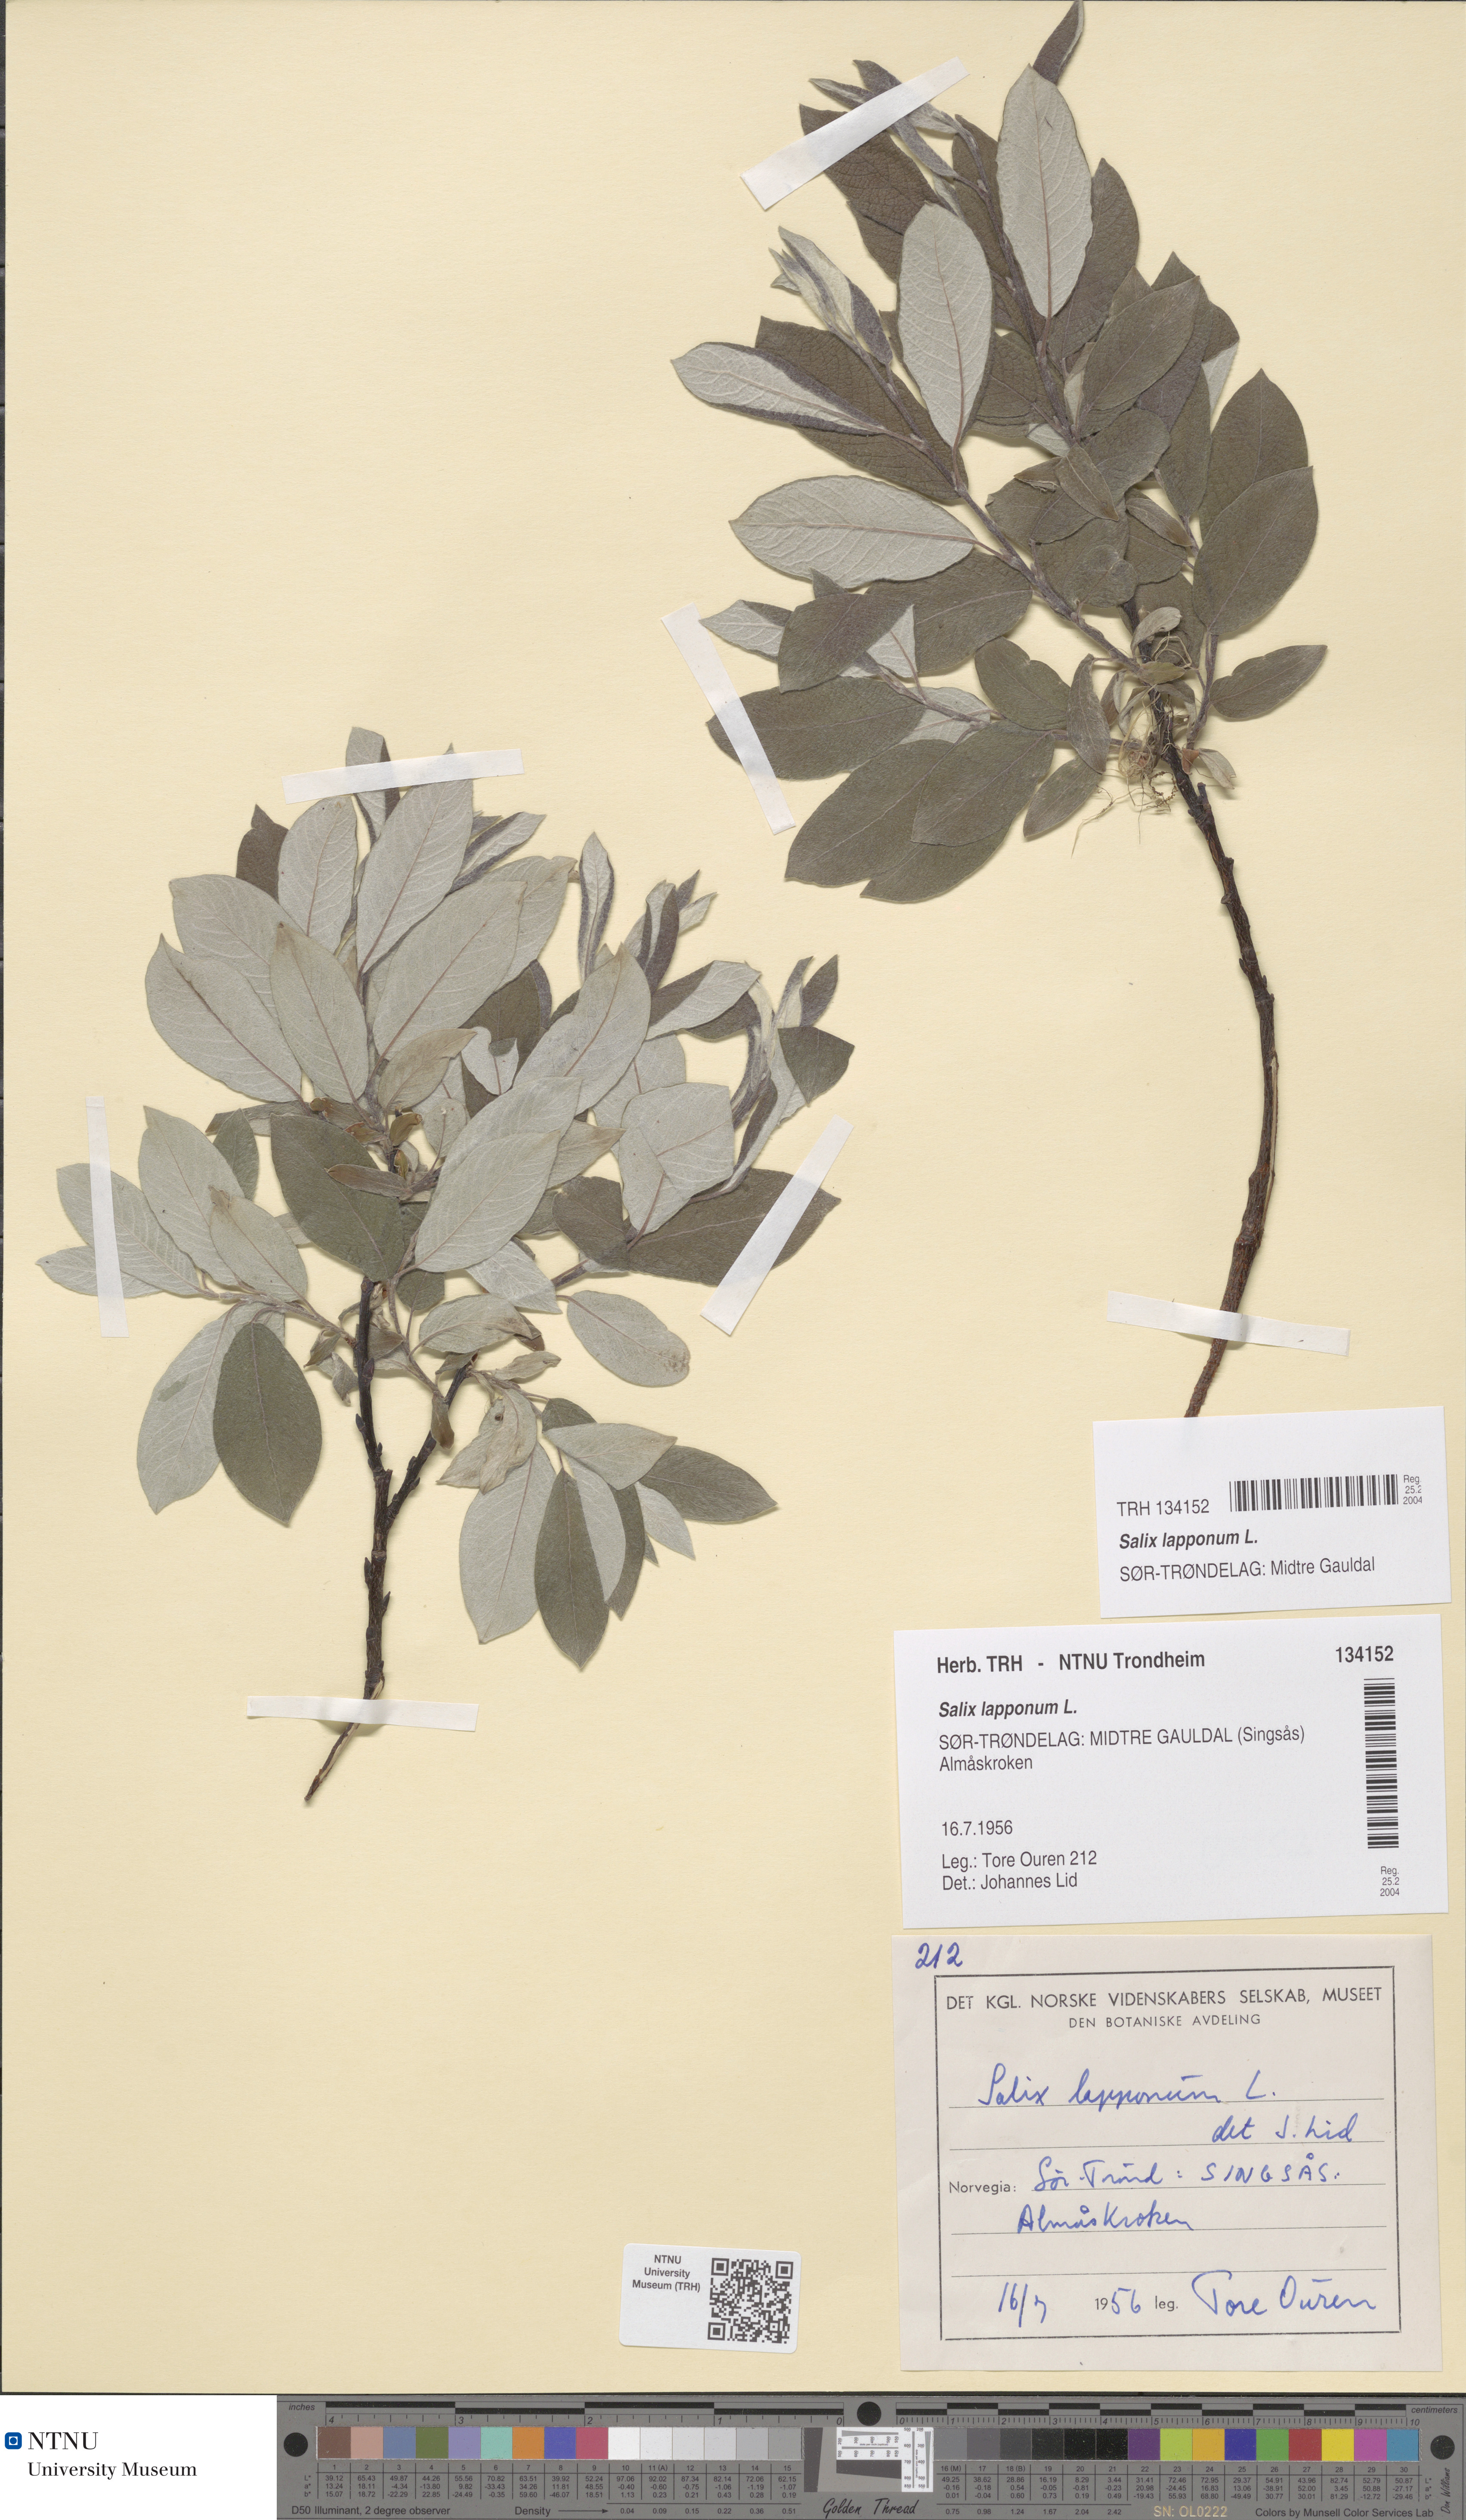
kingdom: Plantae
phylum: Tracheophyta
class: Magnoliopsida
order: Malpighiales
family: Salicaceae
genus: Salix
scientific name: Salix lapponum
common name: Downy willow
